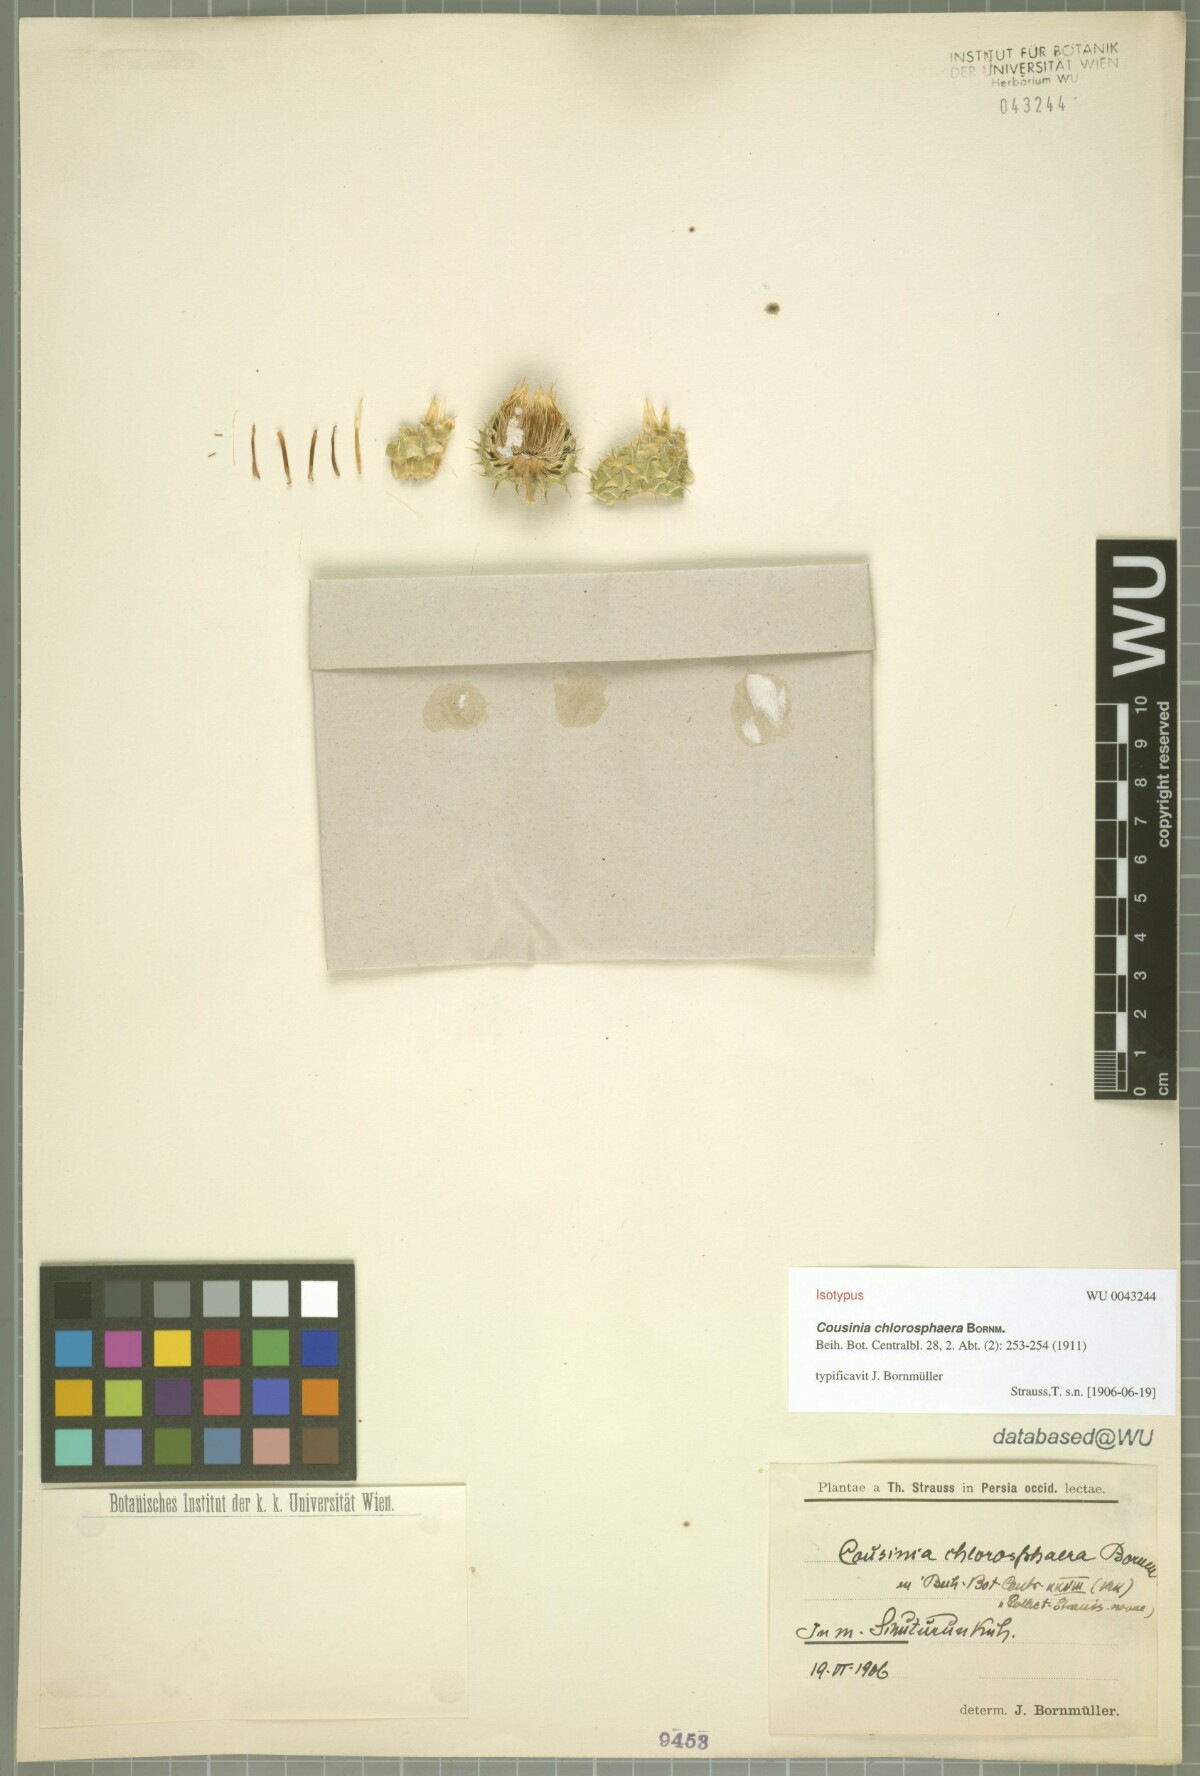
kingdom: Plantae
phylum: Tracheophyta
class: Magnoliopsida
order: Asterales
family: Asteraceae
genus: Cousinia
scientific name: Cousinia chlorosphaera
